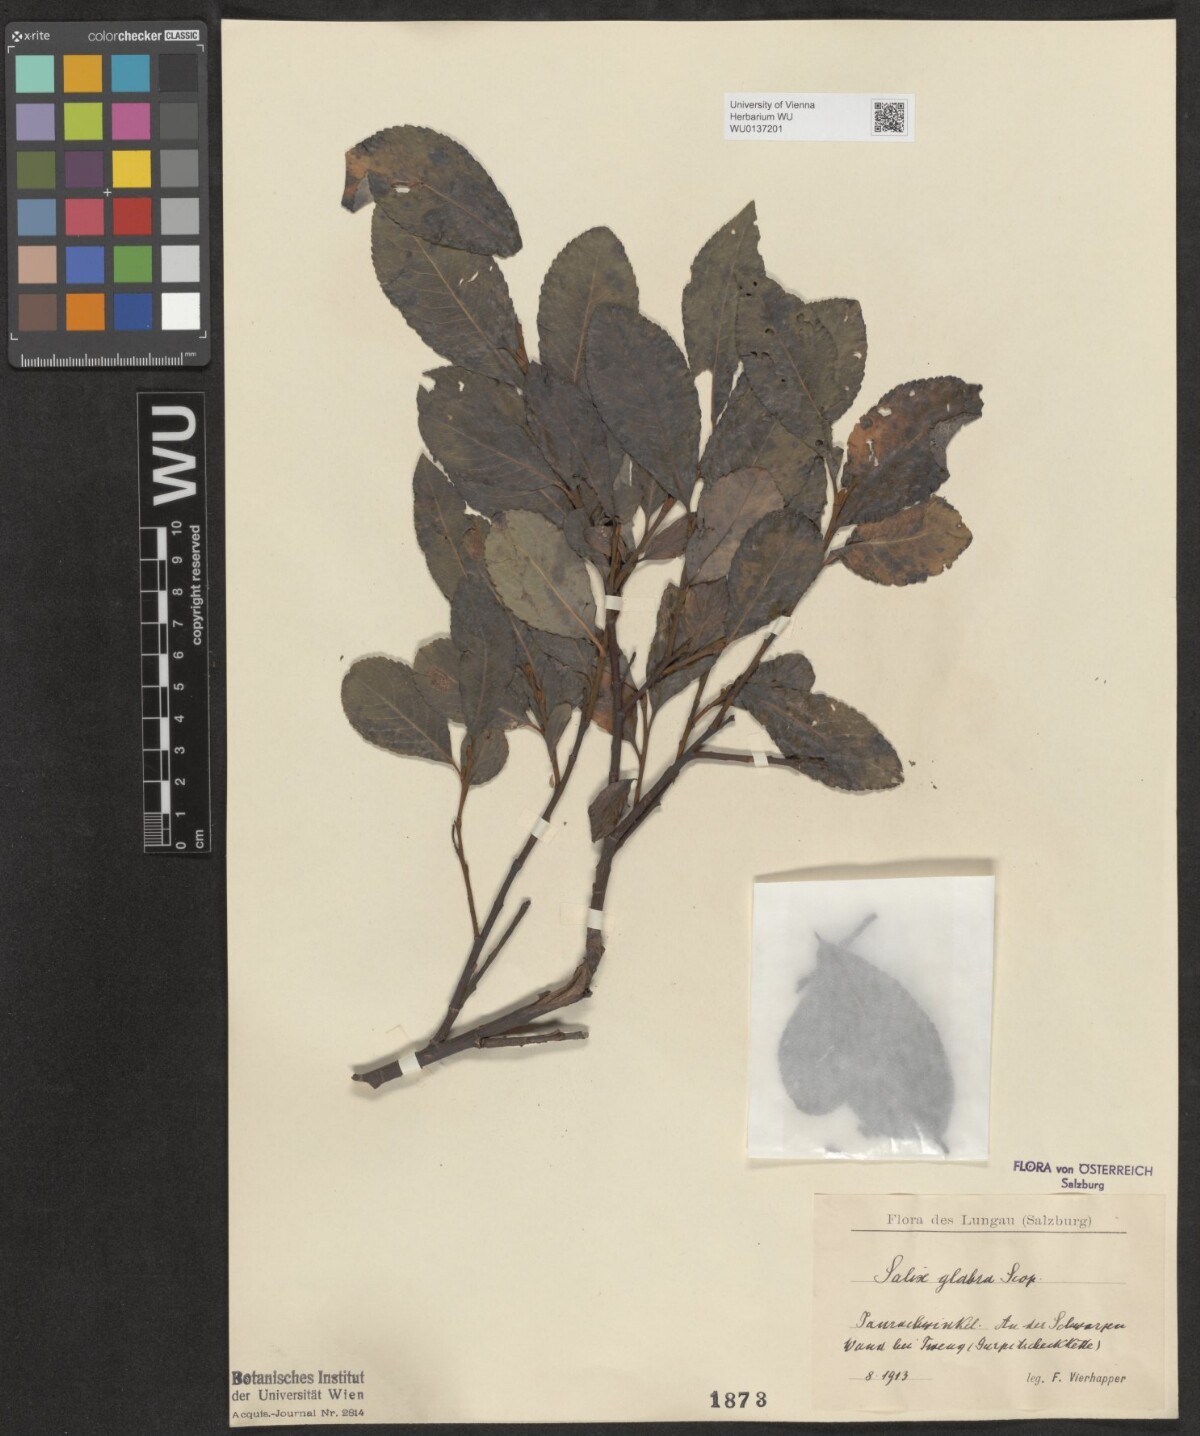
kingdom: Plantae
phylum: Tracheophyta
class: Magnoliopsida
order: Malpighiales
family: Salicaceae
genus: Salix
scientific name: Salix glabra
